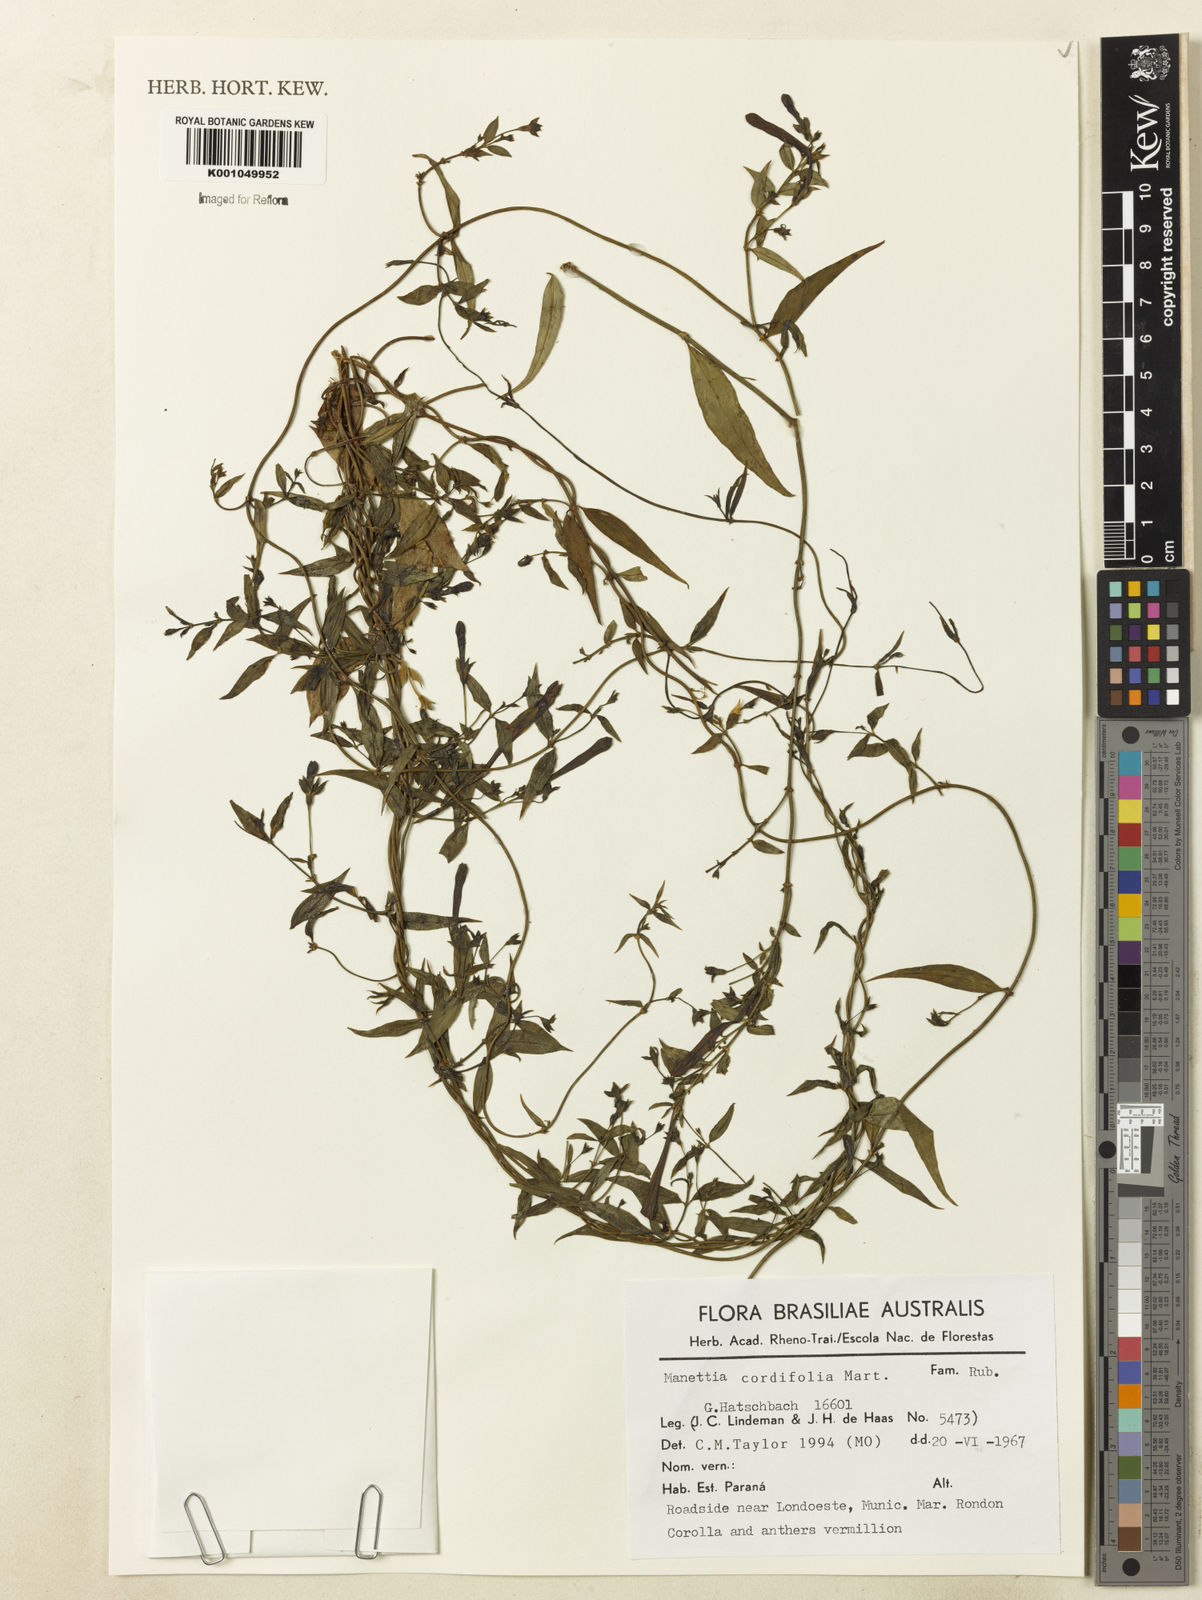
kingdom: Plantae
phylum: Tracheophyta
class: Magnoliopsida
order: Gentianales
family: Rubiaceae
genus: Manettia
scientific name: Manettia cordifolia
